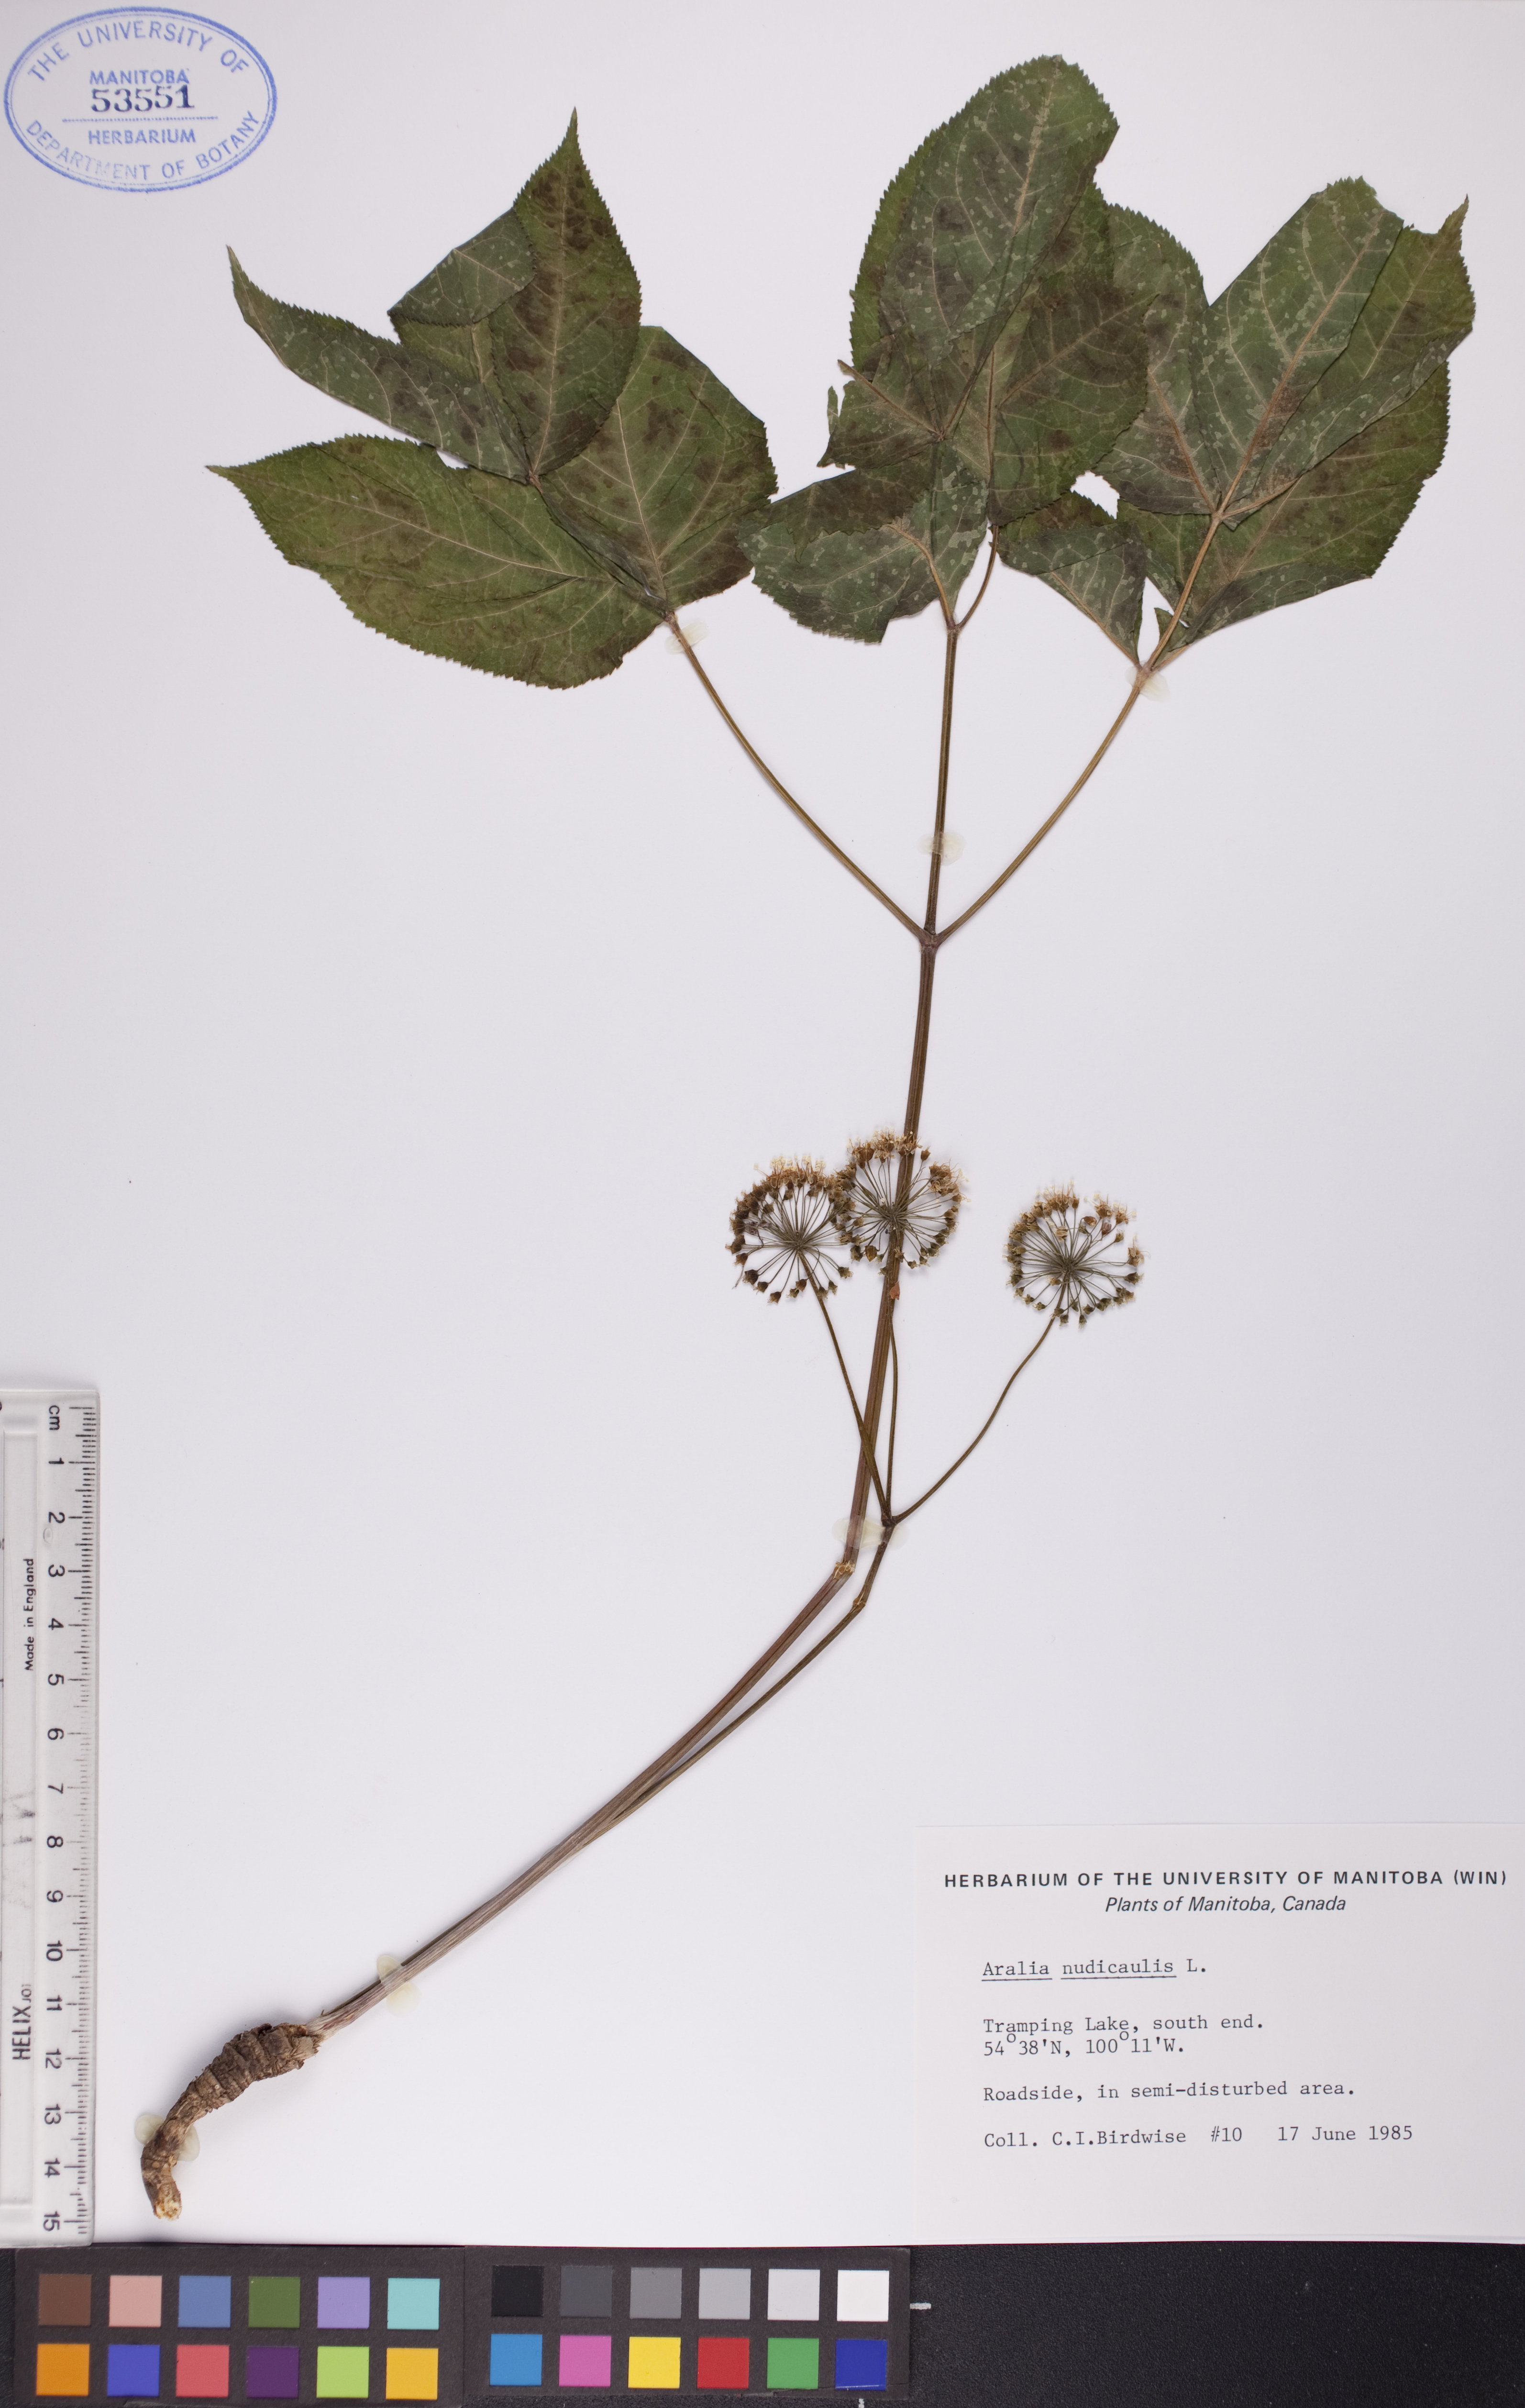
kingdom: Plantae
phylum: Tracheophyta
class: Magnoliopsida
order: Apiales
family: Araliaceae
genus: Aralia
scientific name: Aralia nudicaulis
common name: Wild sarsaparilla
